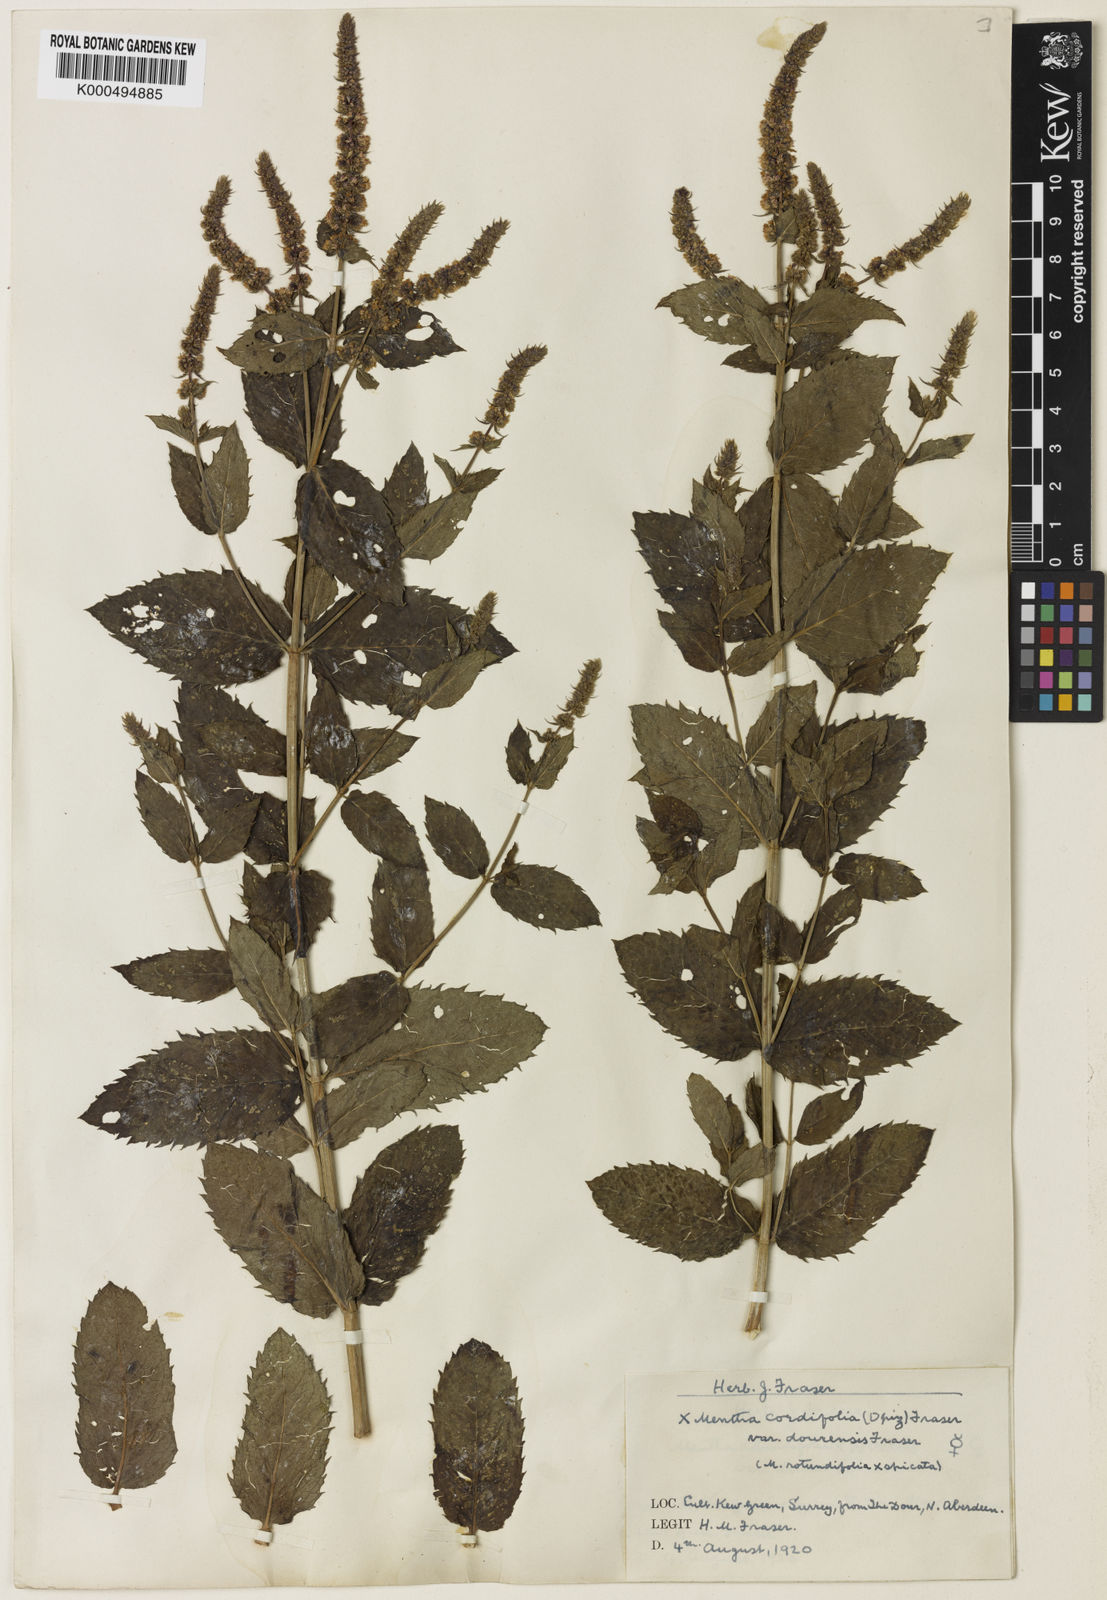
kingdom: Plantae
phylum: Tracheophyta
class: Magnoliopsida
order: Lamiales
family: Lamiaceae
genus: Mentha
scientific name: Mentha villosa
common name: Apple mint
